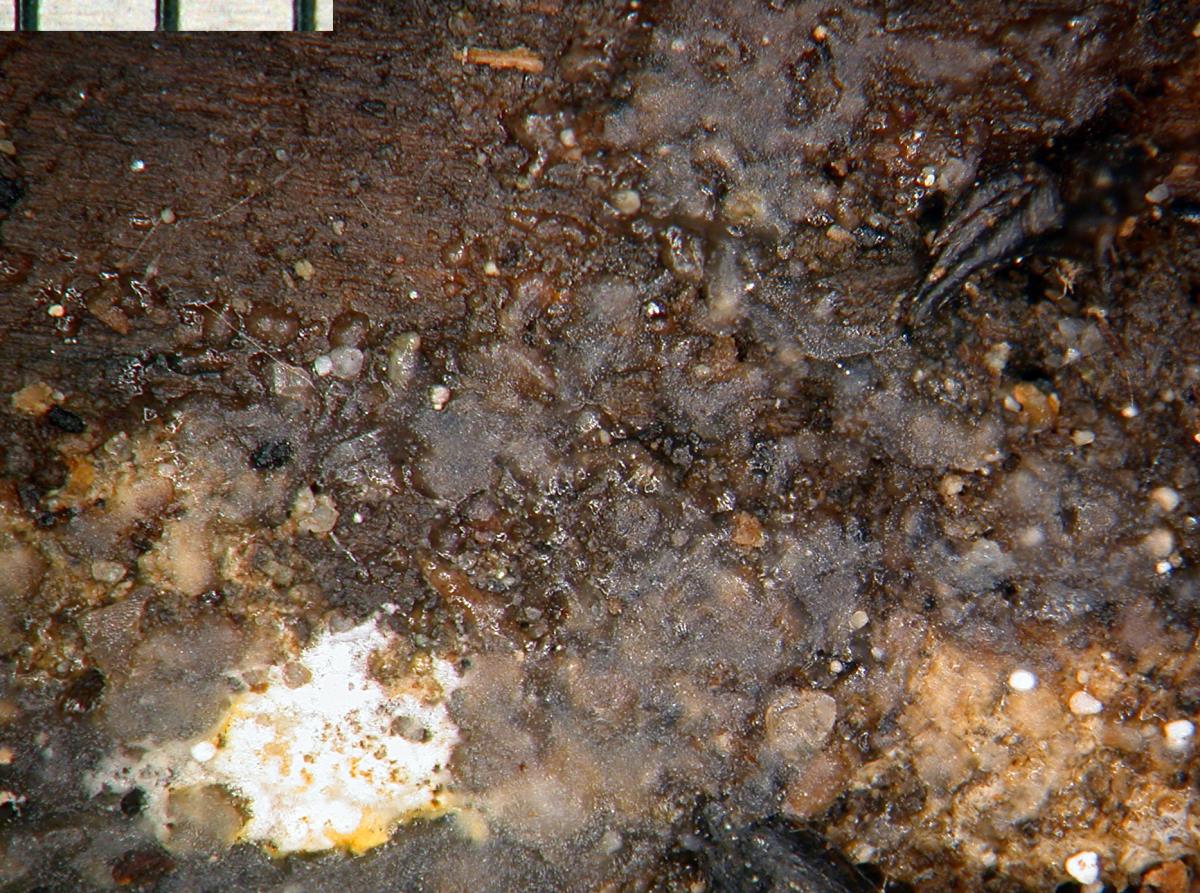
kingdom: Fungi
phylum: Basidiomycota
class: Agaricomycetes
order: Auriculariales
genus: Stypella
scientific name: Stypella grilletii
